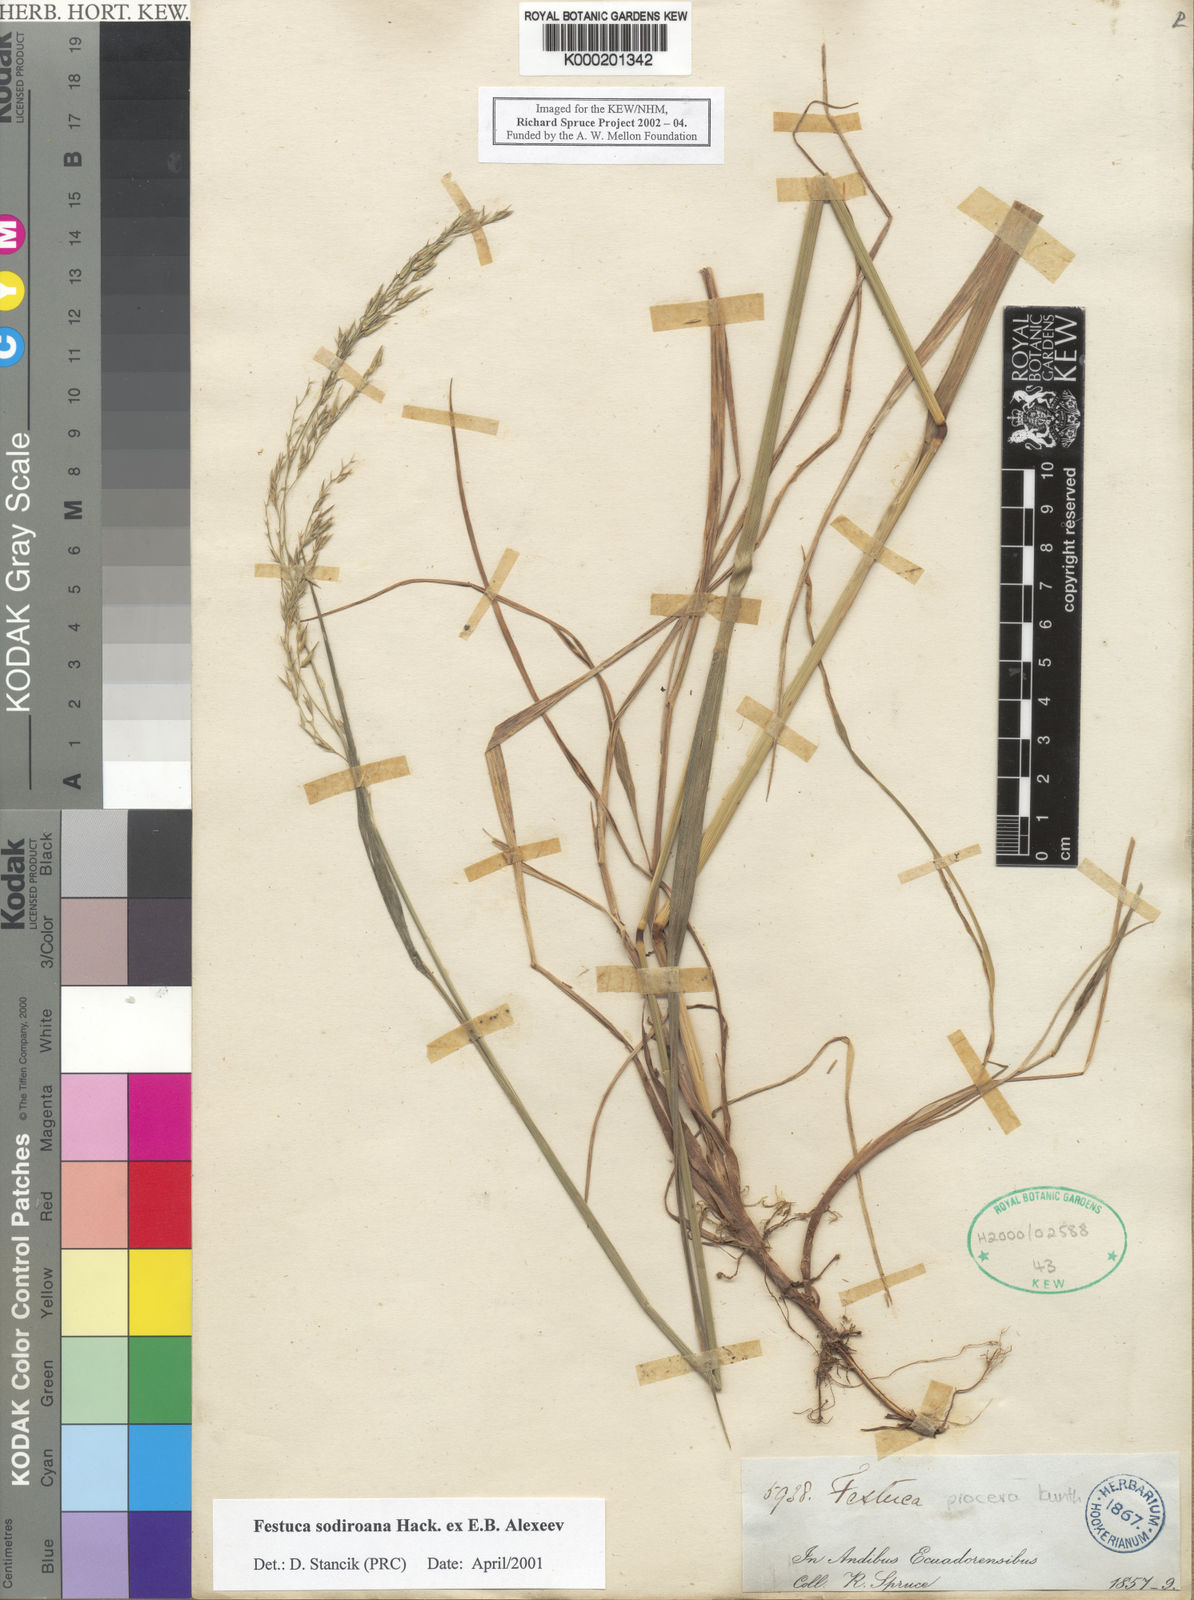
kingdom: Plantae
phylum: Tracheophyta
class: Liliopsida
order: Poales
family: Poaceae
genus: Festuca
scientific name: Festuca sodiroana
